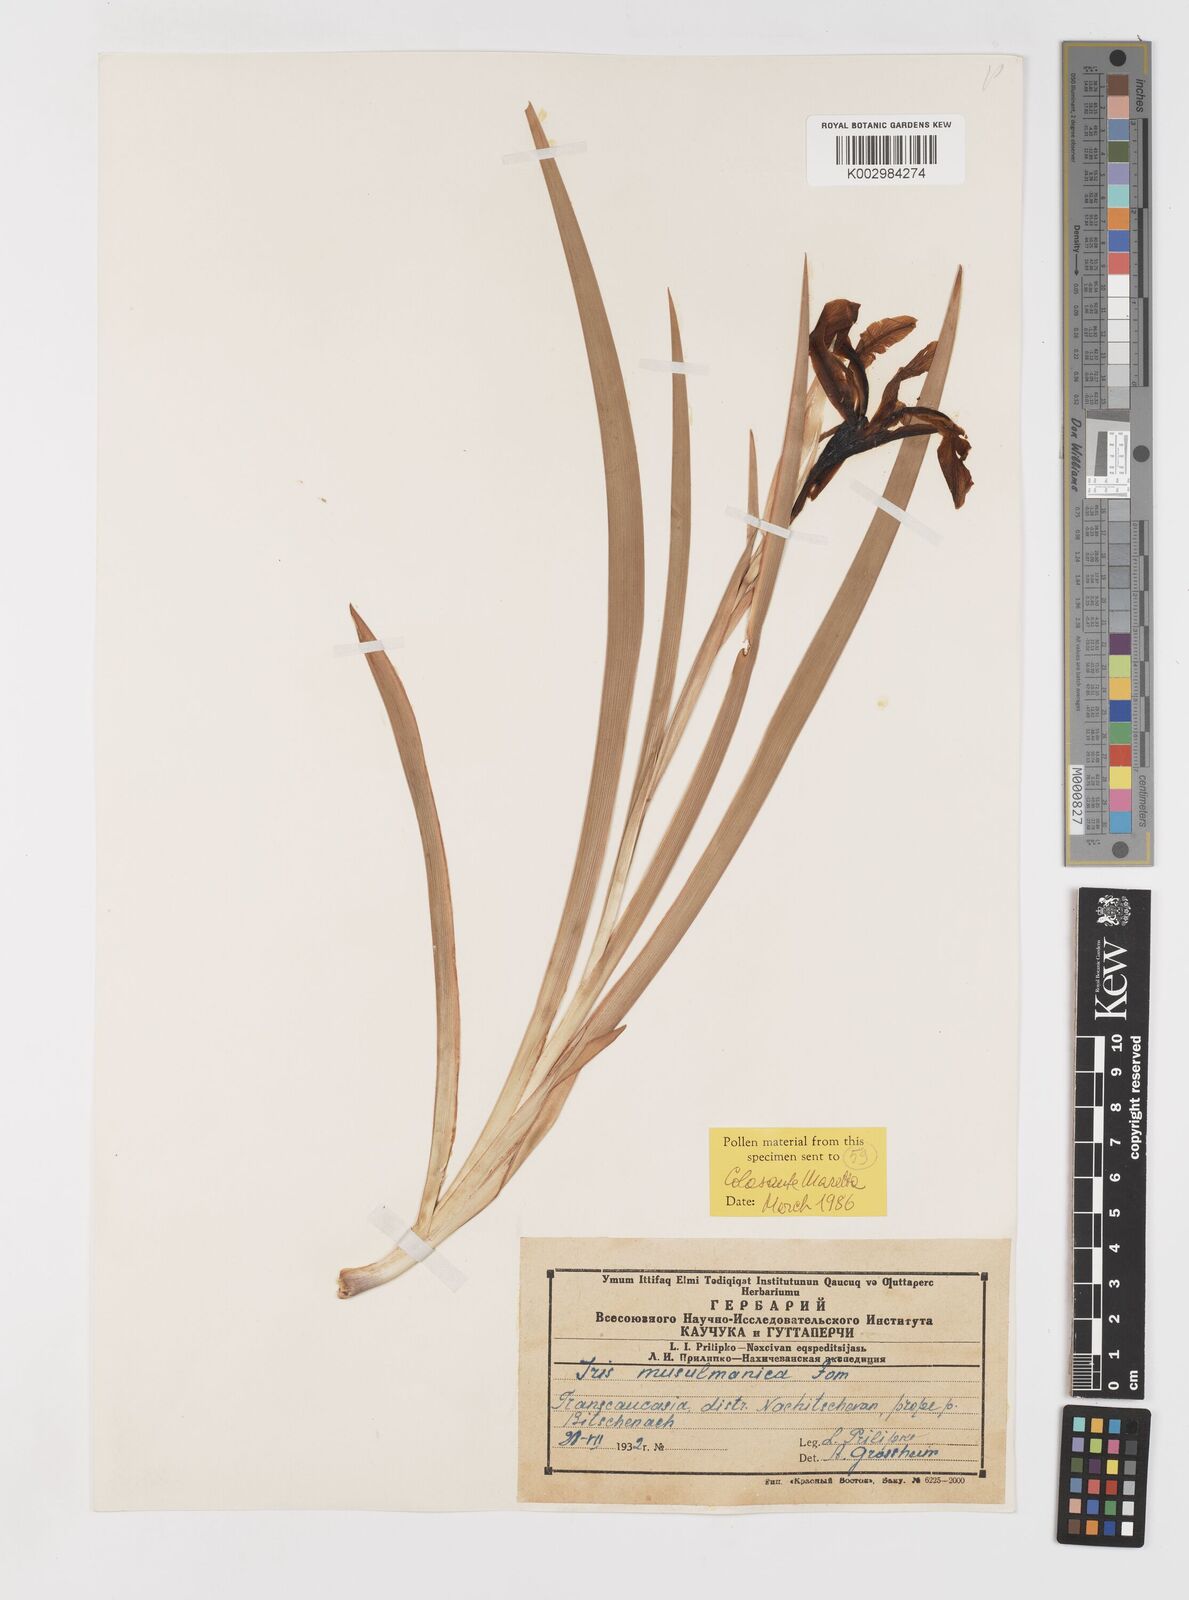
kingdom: Plantae
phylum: Tracheophyta
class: Liliopsida
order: Asparagales
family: Iridaceae
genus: Iris
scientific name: Iris spuria
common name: Blue iris
